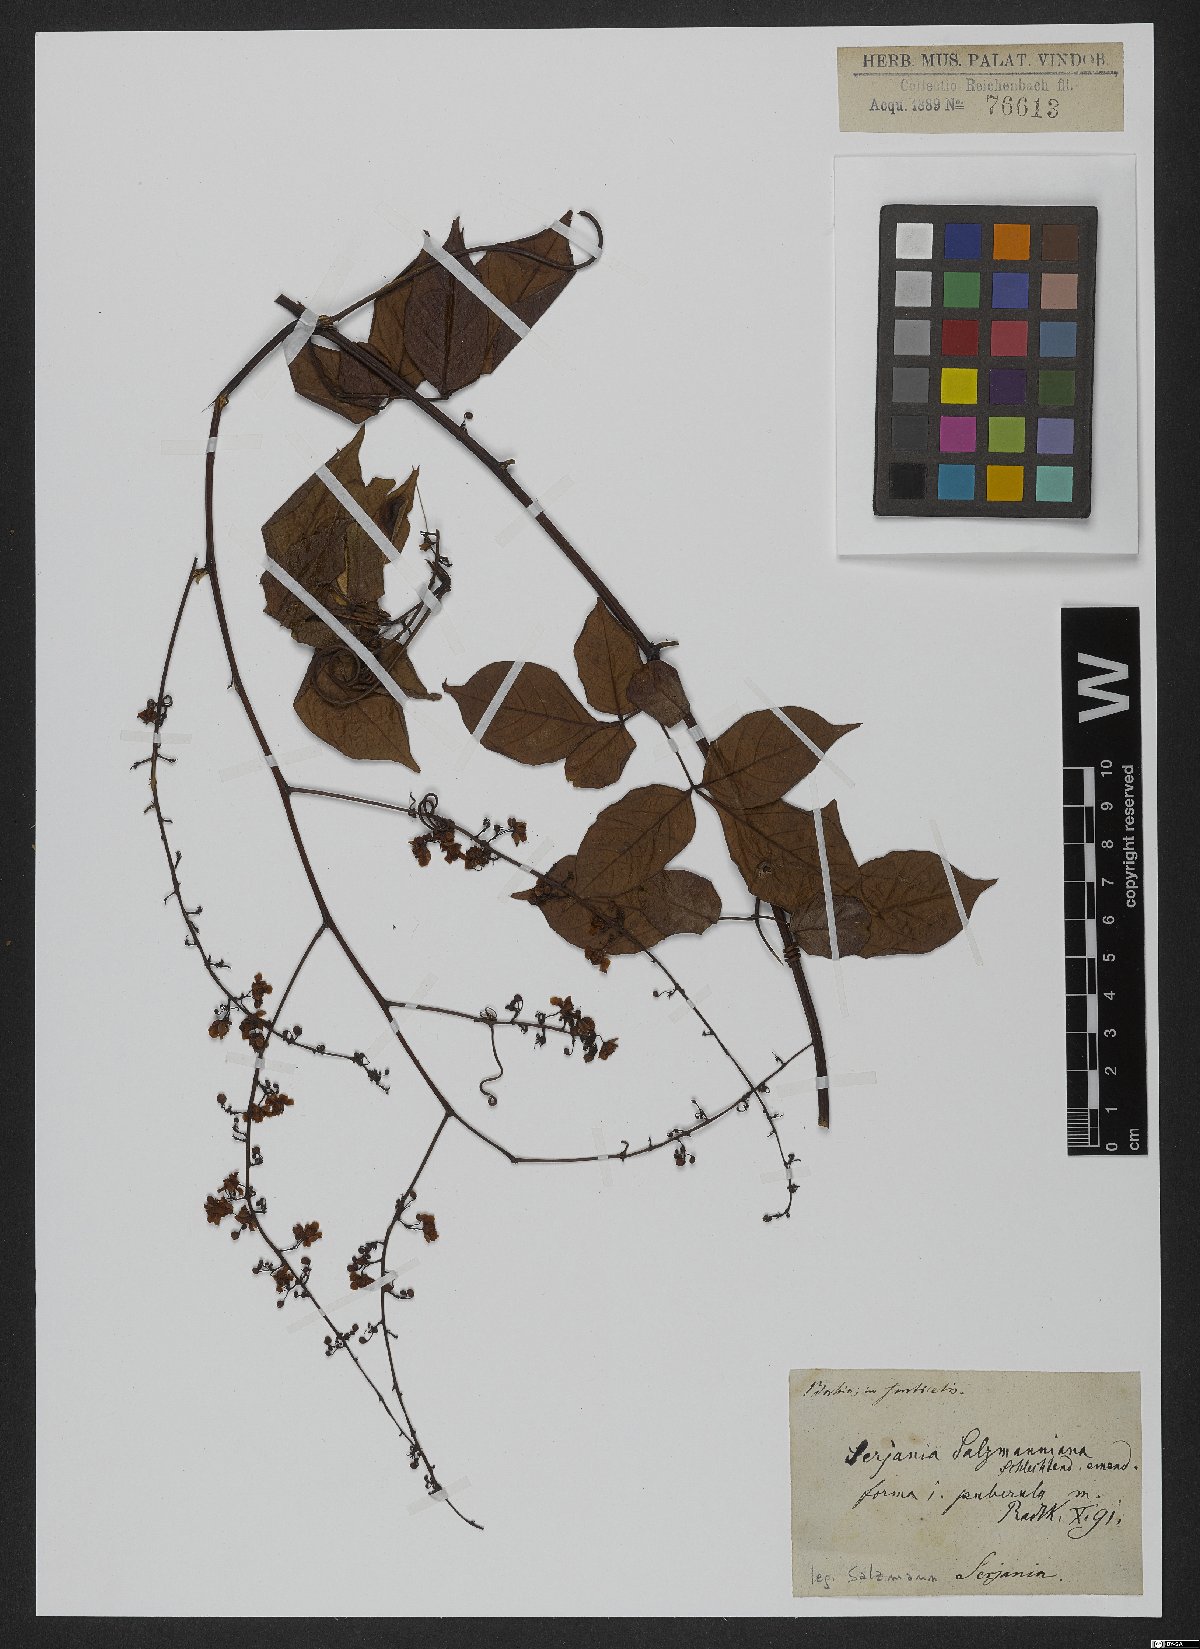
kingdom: Plantae
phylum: Tracheophyta
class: Magnoliopsida
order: Sapindales
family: Sapindaceae
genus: Serjania
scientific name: Serjania salzmanniana
